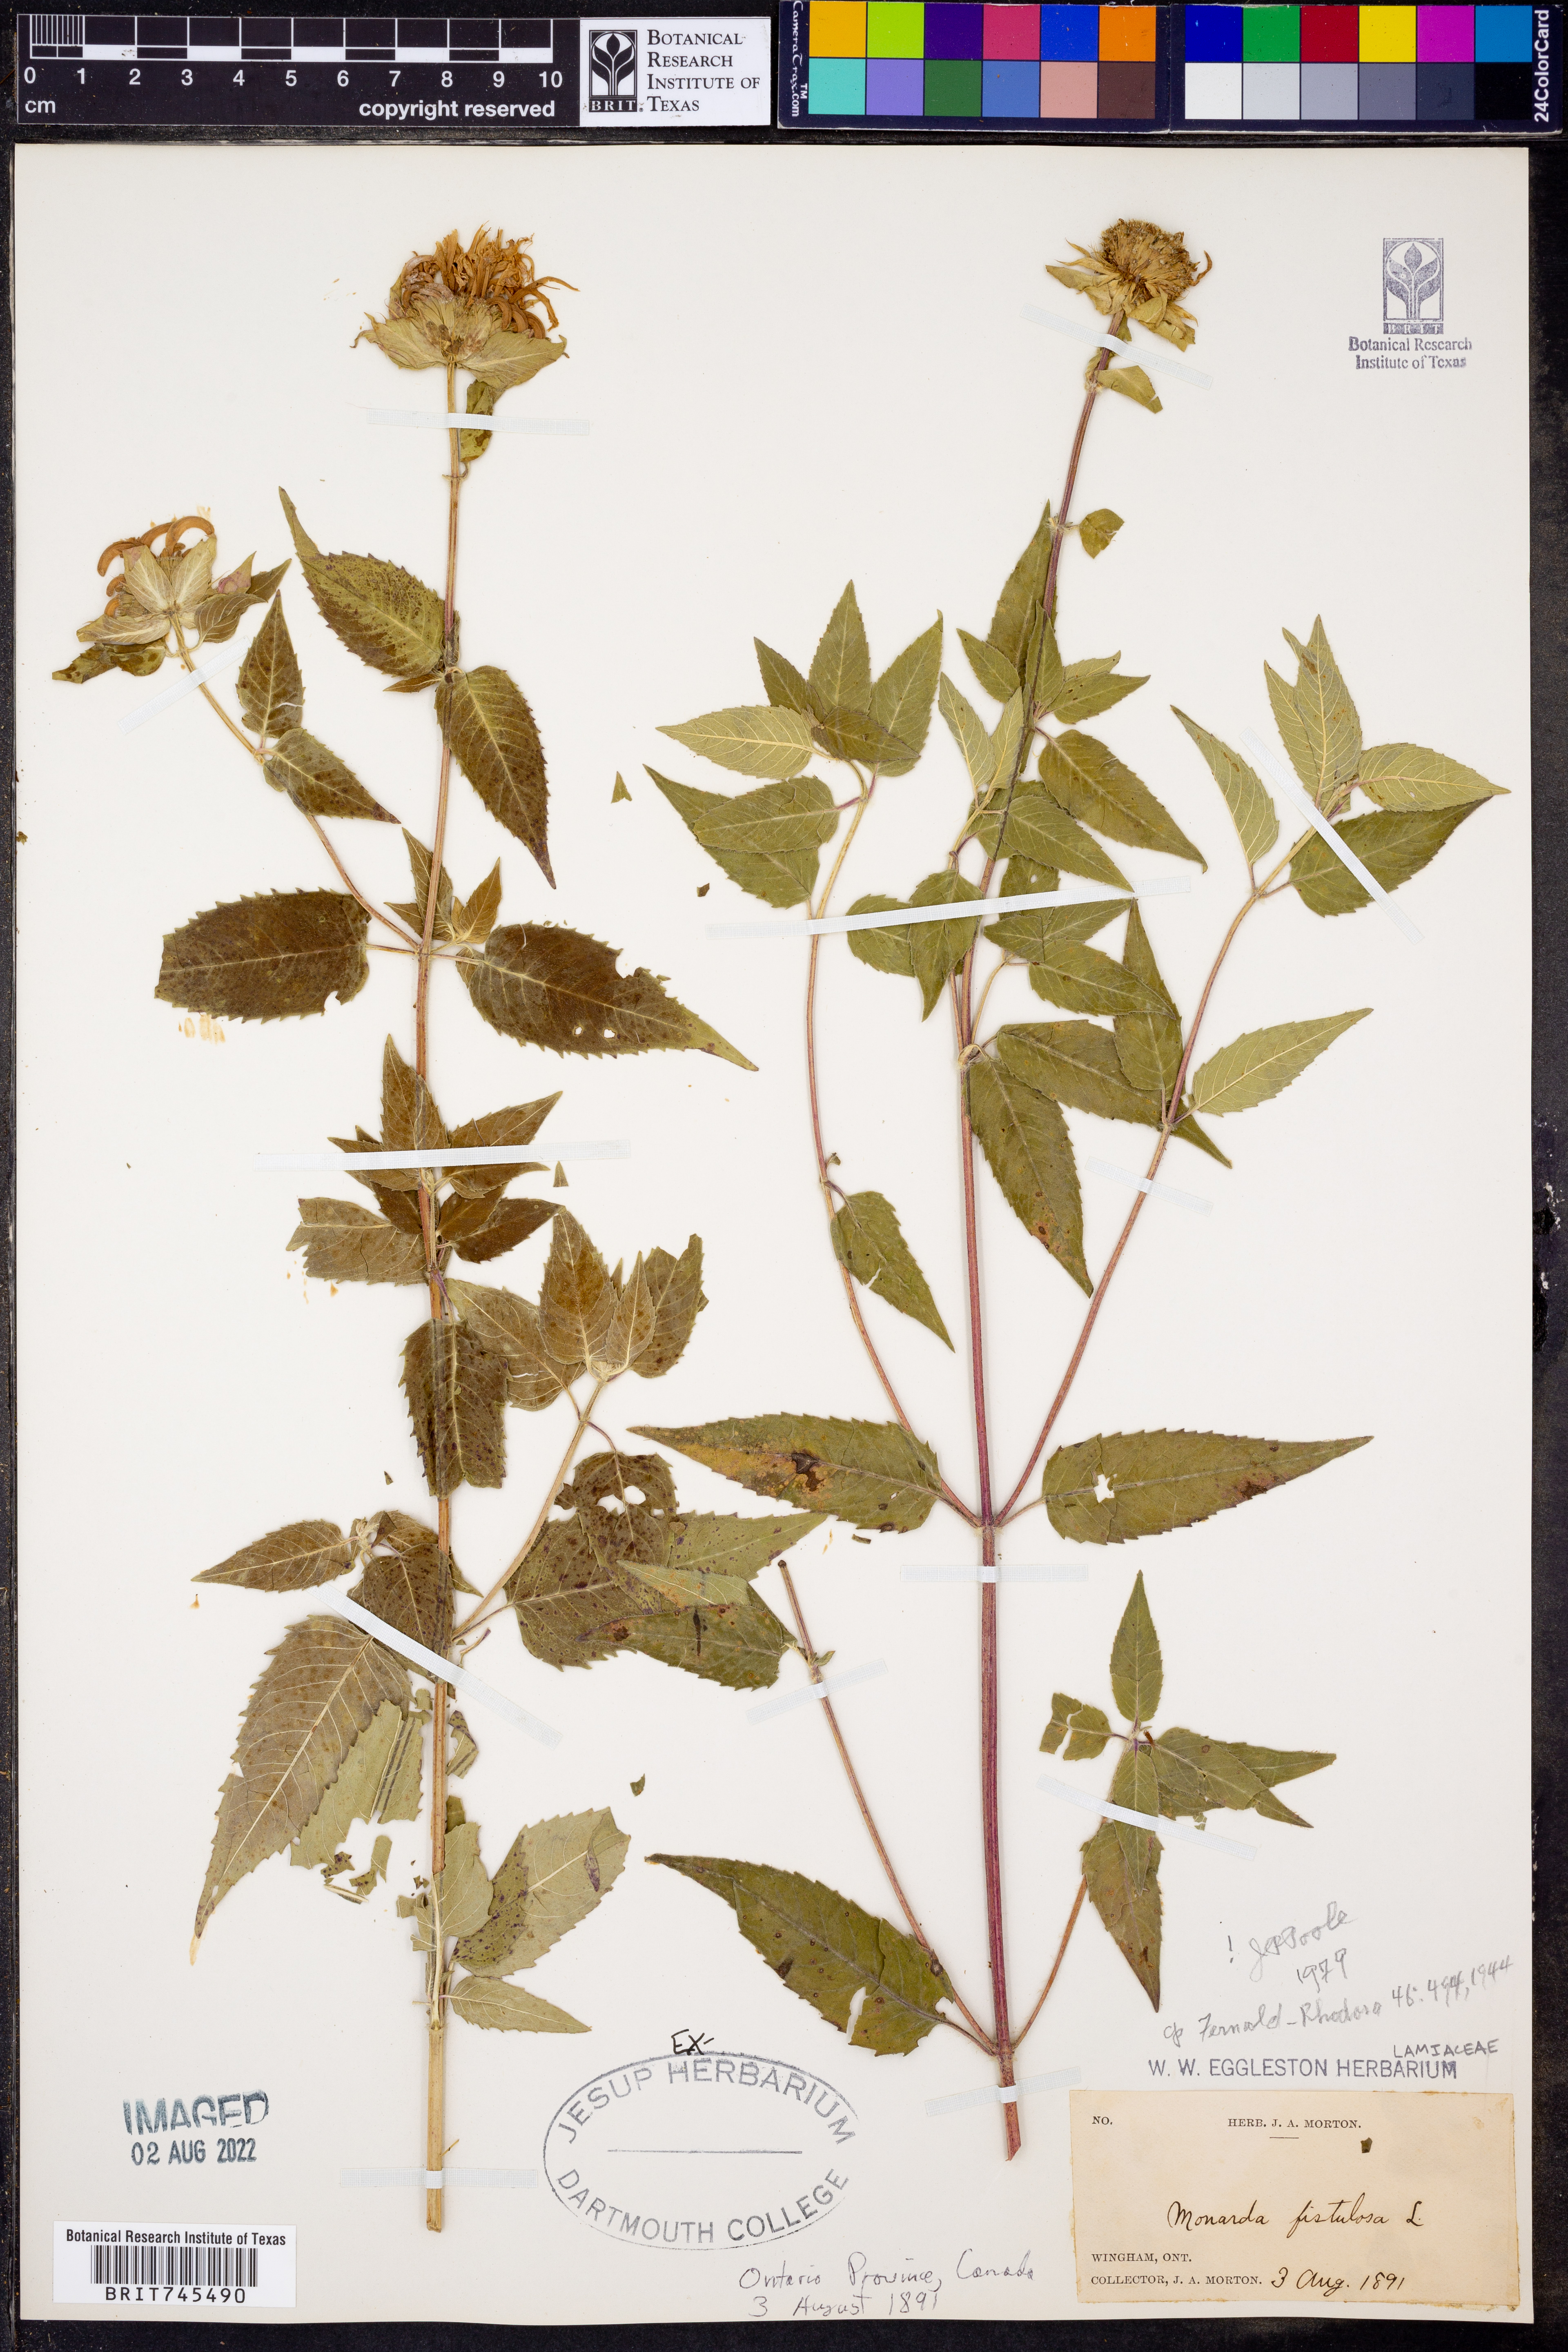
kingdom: Plantae
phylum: Tracheophyta
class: Magnoliopsida
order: Lamiales
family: Lamiaceae
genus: Monarda
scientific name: Monarda fistulosa
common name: Purple beebalm
